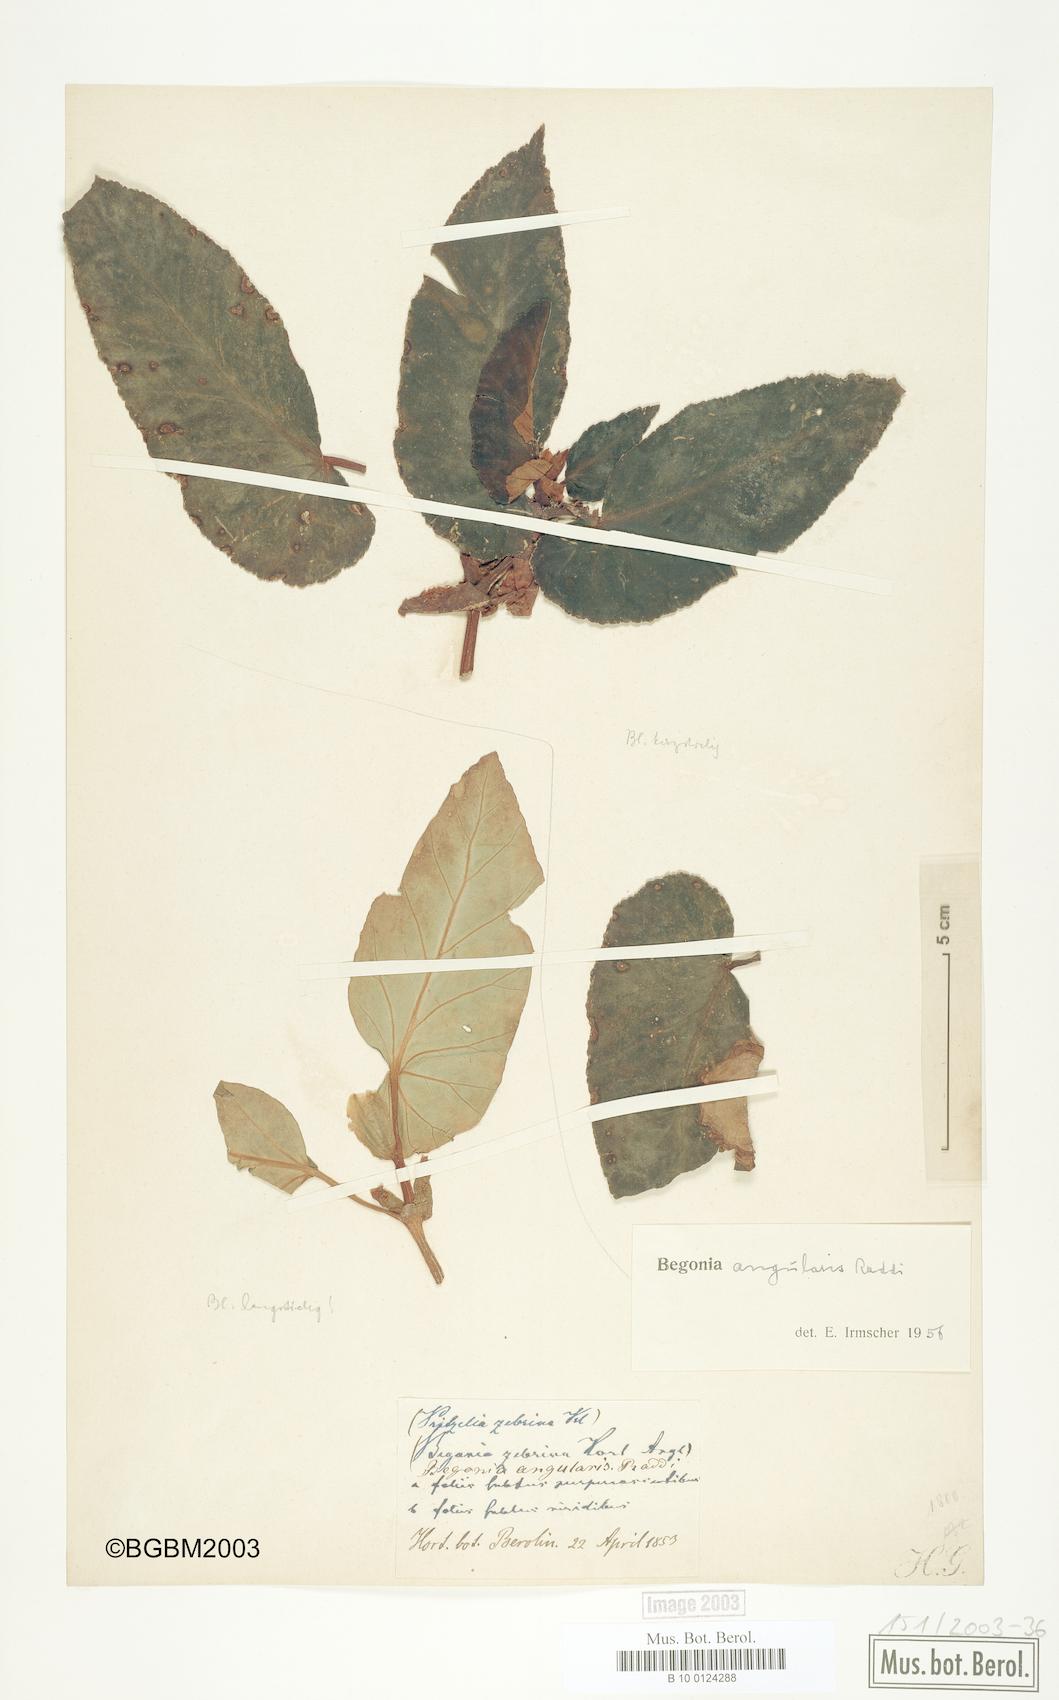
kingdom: Plantae
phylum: Tracheophyta
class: Magnoliopsida
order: Cucurbitales
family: Begoniaceae
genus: Begonia
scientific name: Begonia angularis
